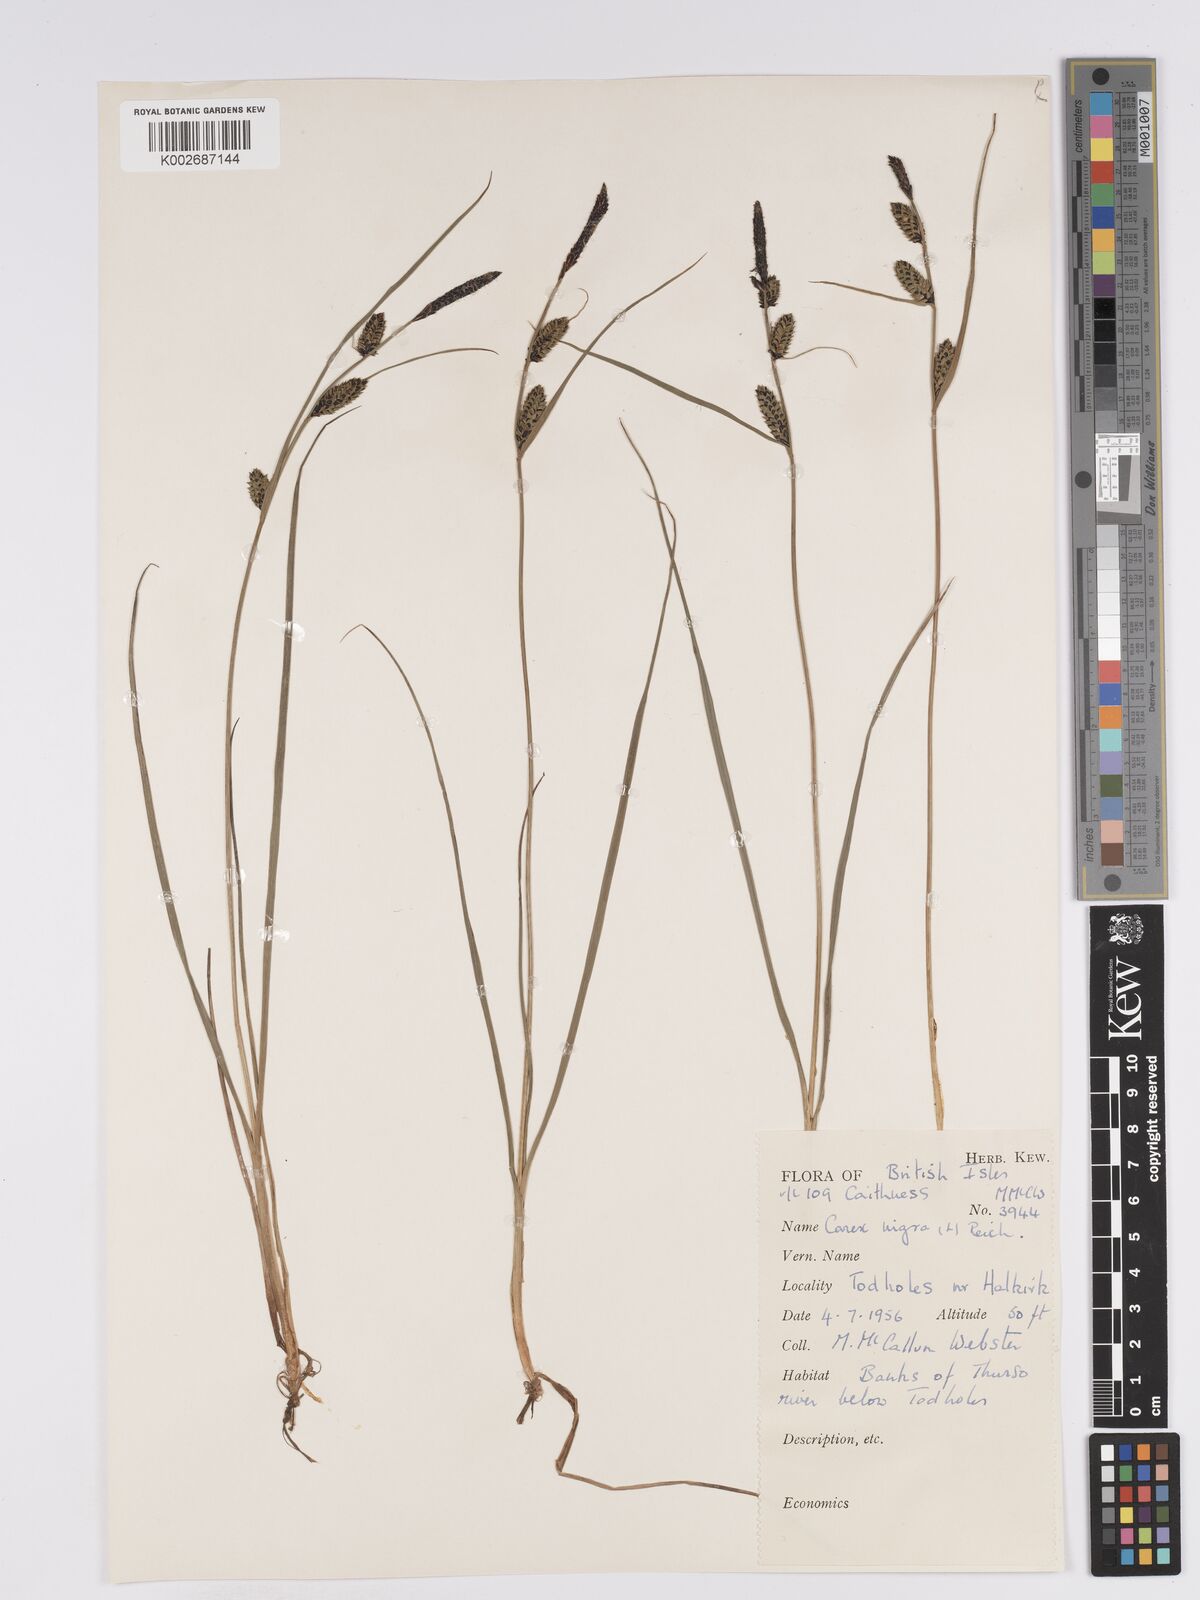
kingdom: Plantae
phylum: Tracheophyta
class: Liliopsida
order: Poales
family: Cyperaceae
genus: Carex
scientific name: Carex nigra
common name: Common sedge
